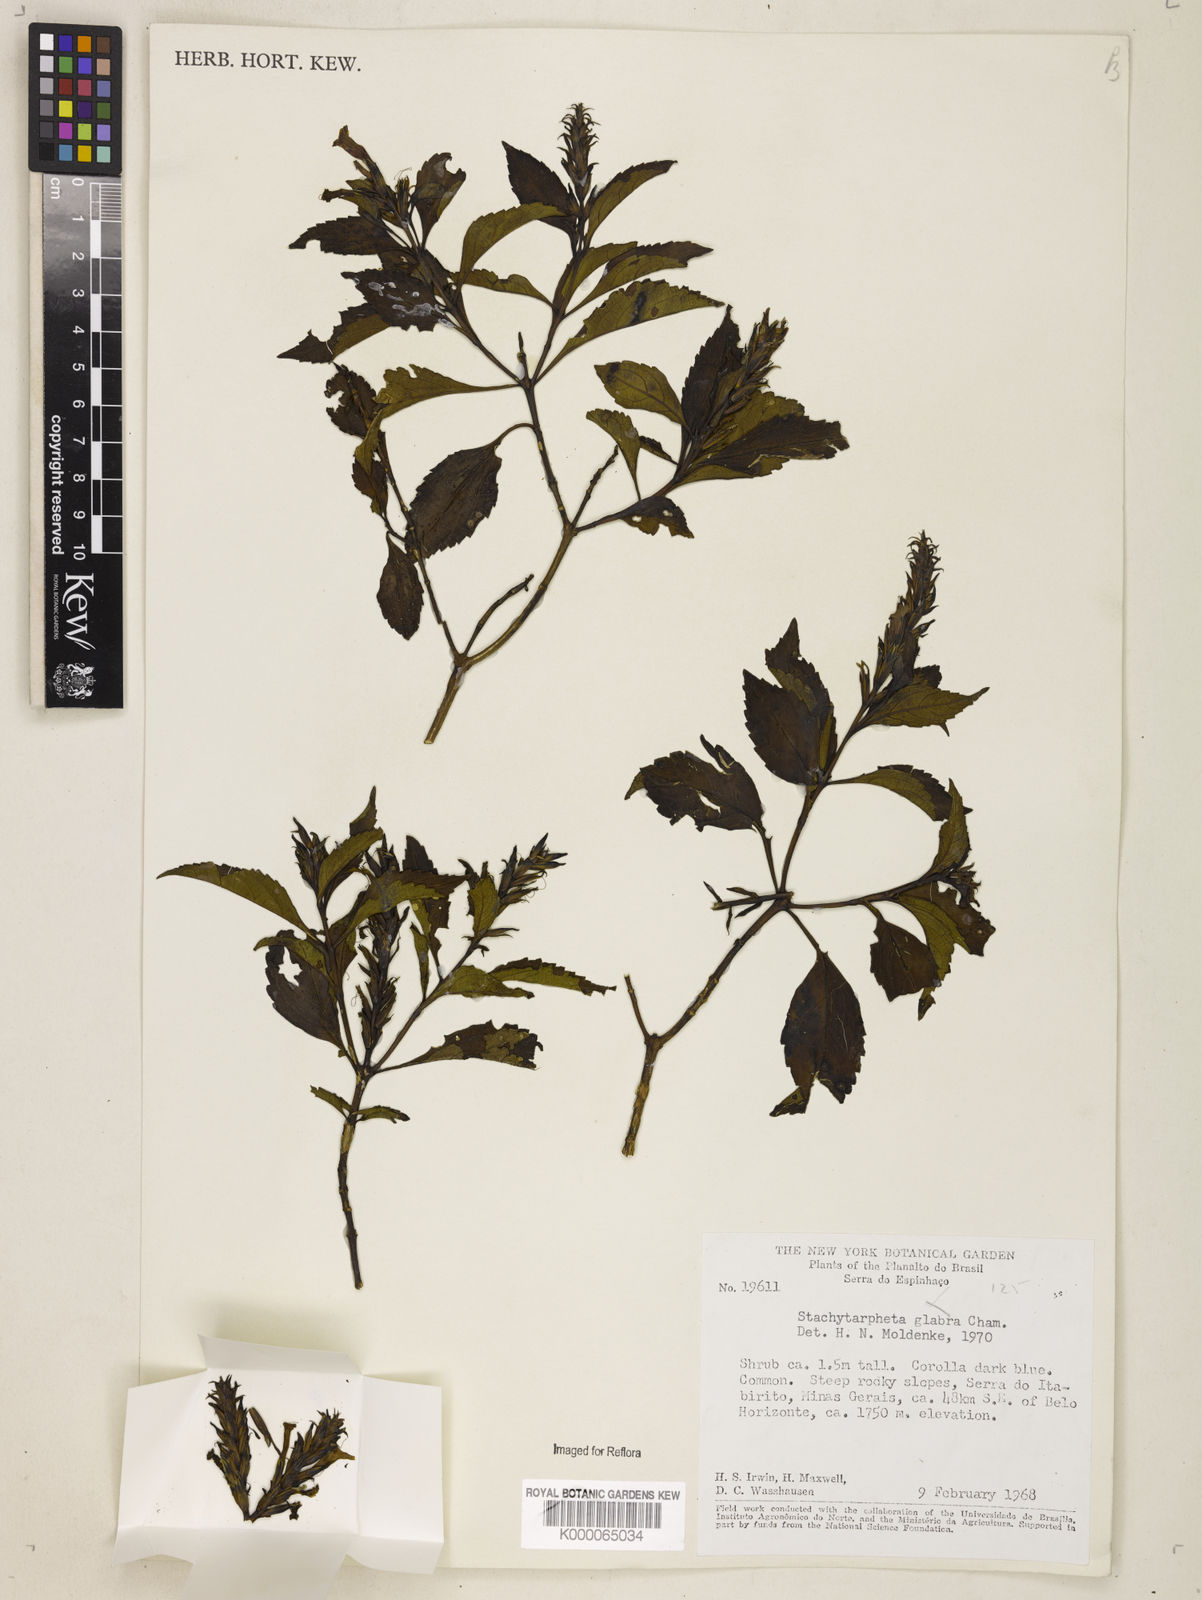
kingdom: Plantae
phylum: Tracheophyta
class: Magnoliopsida
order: Lamiales
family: Verbenaceae
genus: Stachytarpheta
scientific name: Stachytarpheta glabra
